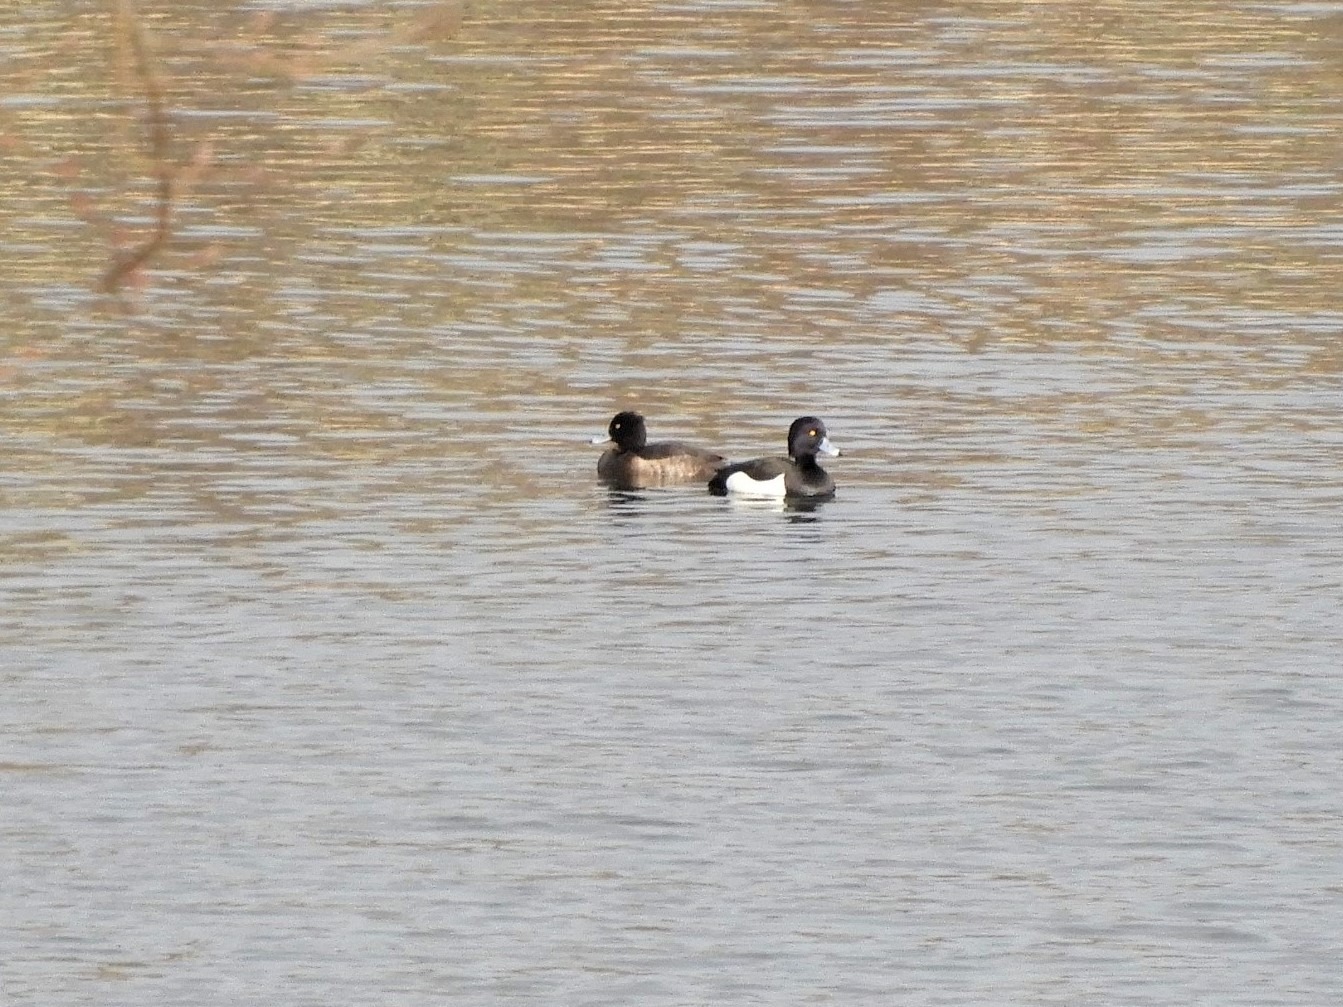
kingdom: Animalia
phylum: Chordata
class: Aves
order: Anseriformes
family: Anatidae
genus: Aythya
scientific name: Aythya fuligula
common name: Troldand
